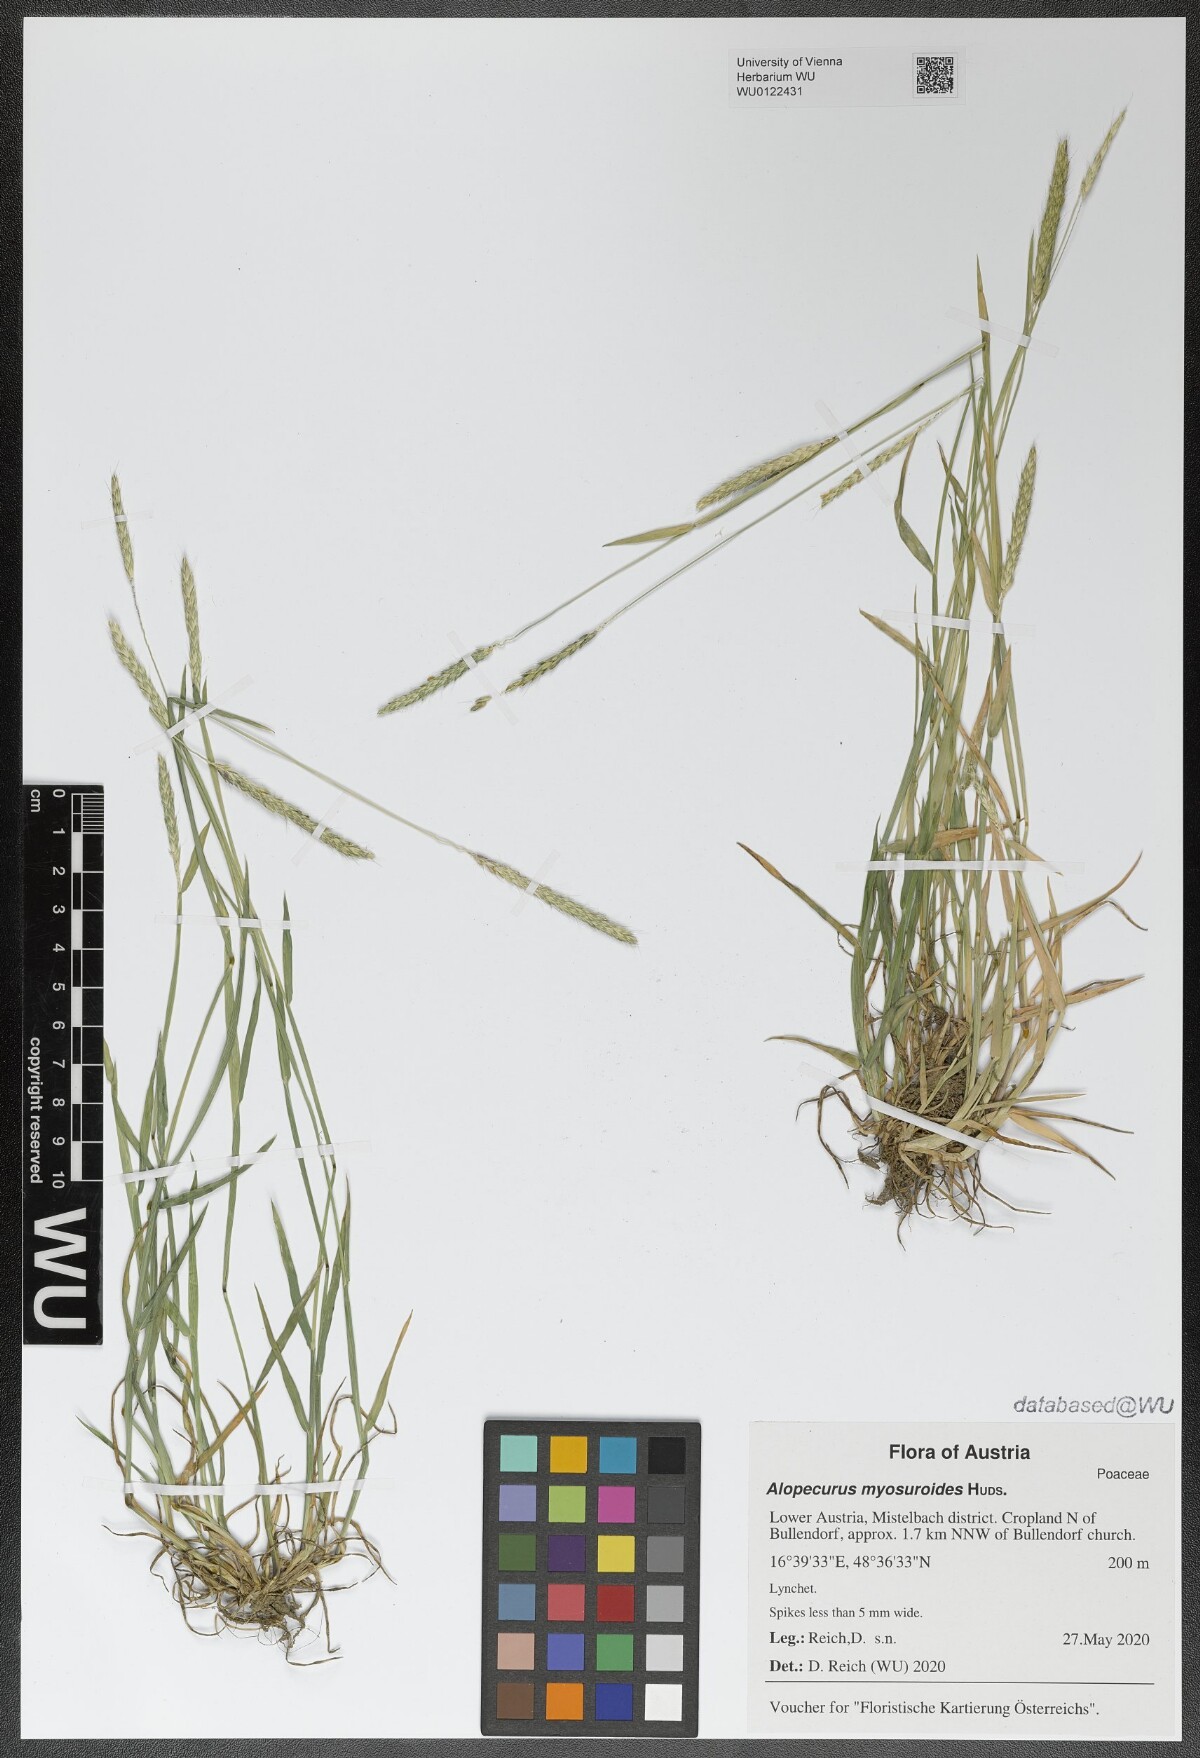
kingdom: Plantae
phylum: Tracheophyta
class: Liliopsida
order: Poales
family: Poaceae
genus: Alopecurus
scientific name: Alopecurus myosuroides
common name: Black-grass
